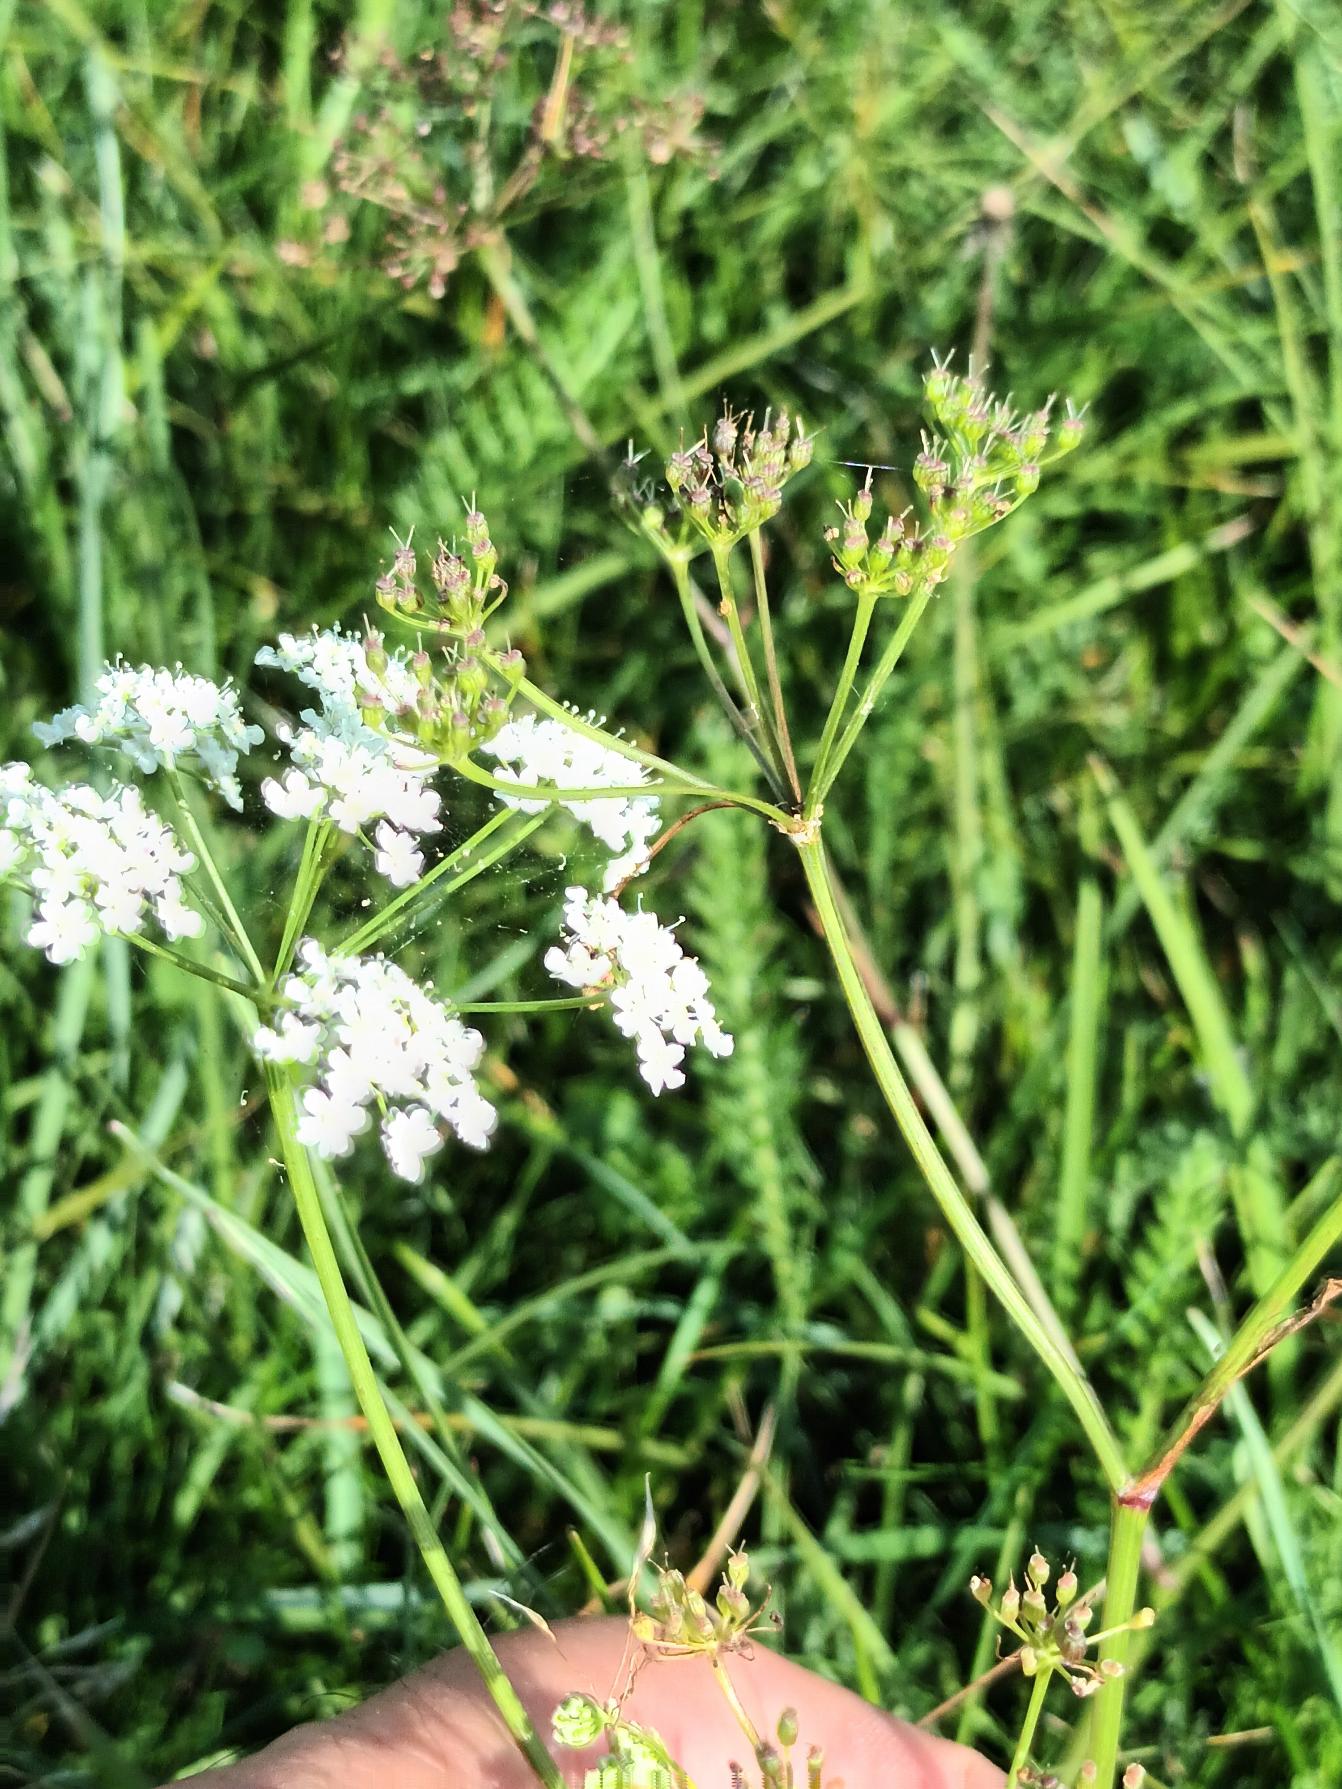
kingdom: Plantae
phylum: Tracheophyta
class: Magnoliopsida
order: Apiales
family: Apiaceae
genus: Pimpinella
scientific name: Pimpinella saxifraga
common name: Almindelig pimpinelle
